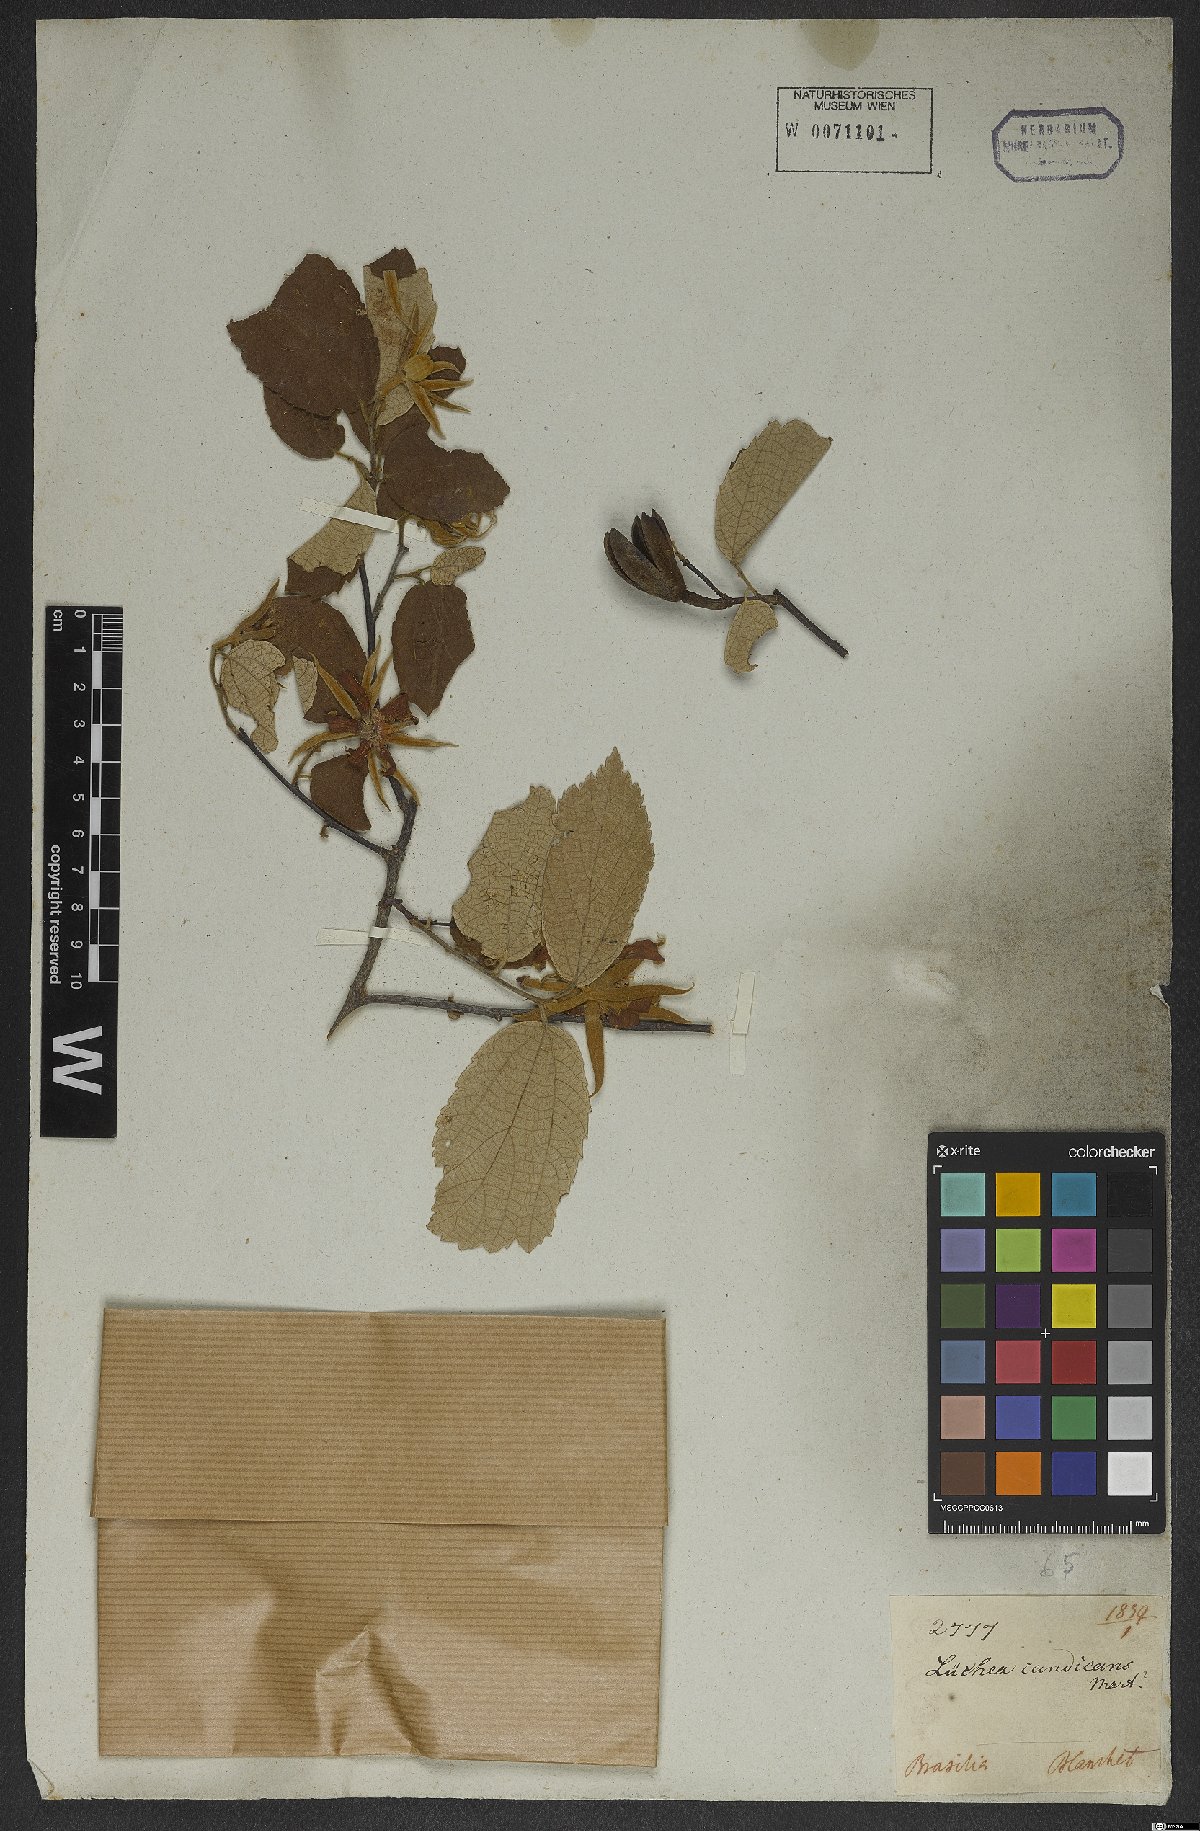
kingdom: Plantae
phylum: Tracheophyta
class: Magnoliopsida
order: Malvales
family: Malvaceae
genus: Luehea
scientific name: Luehea candicans
